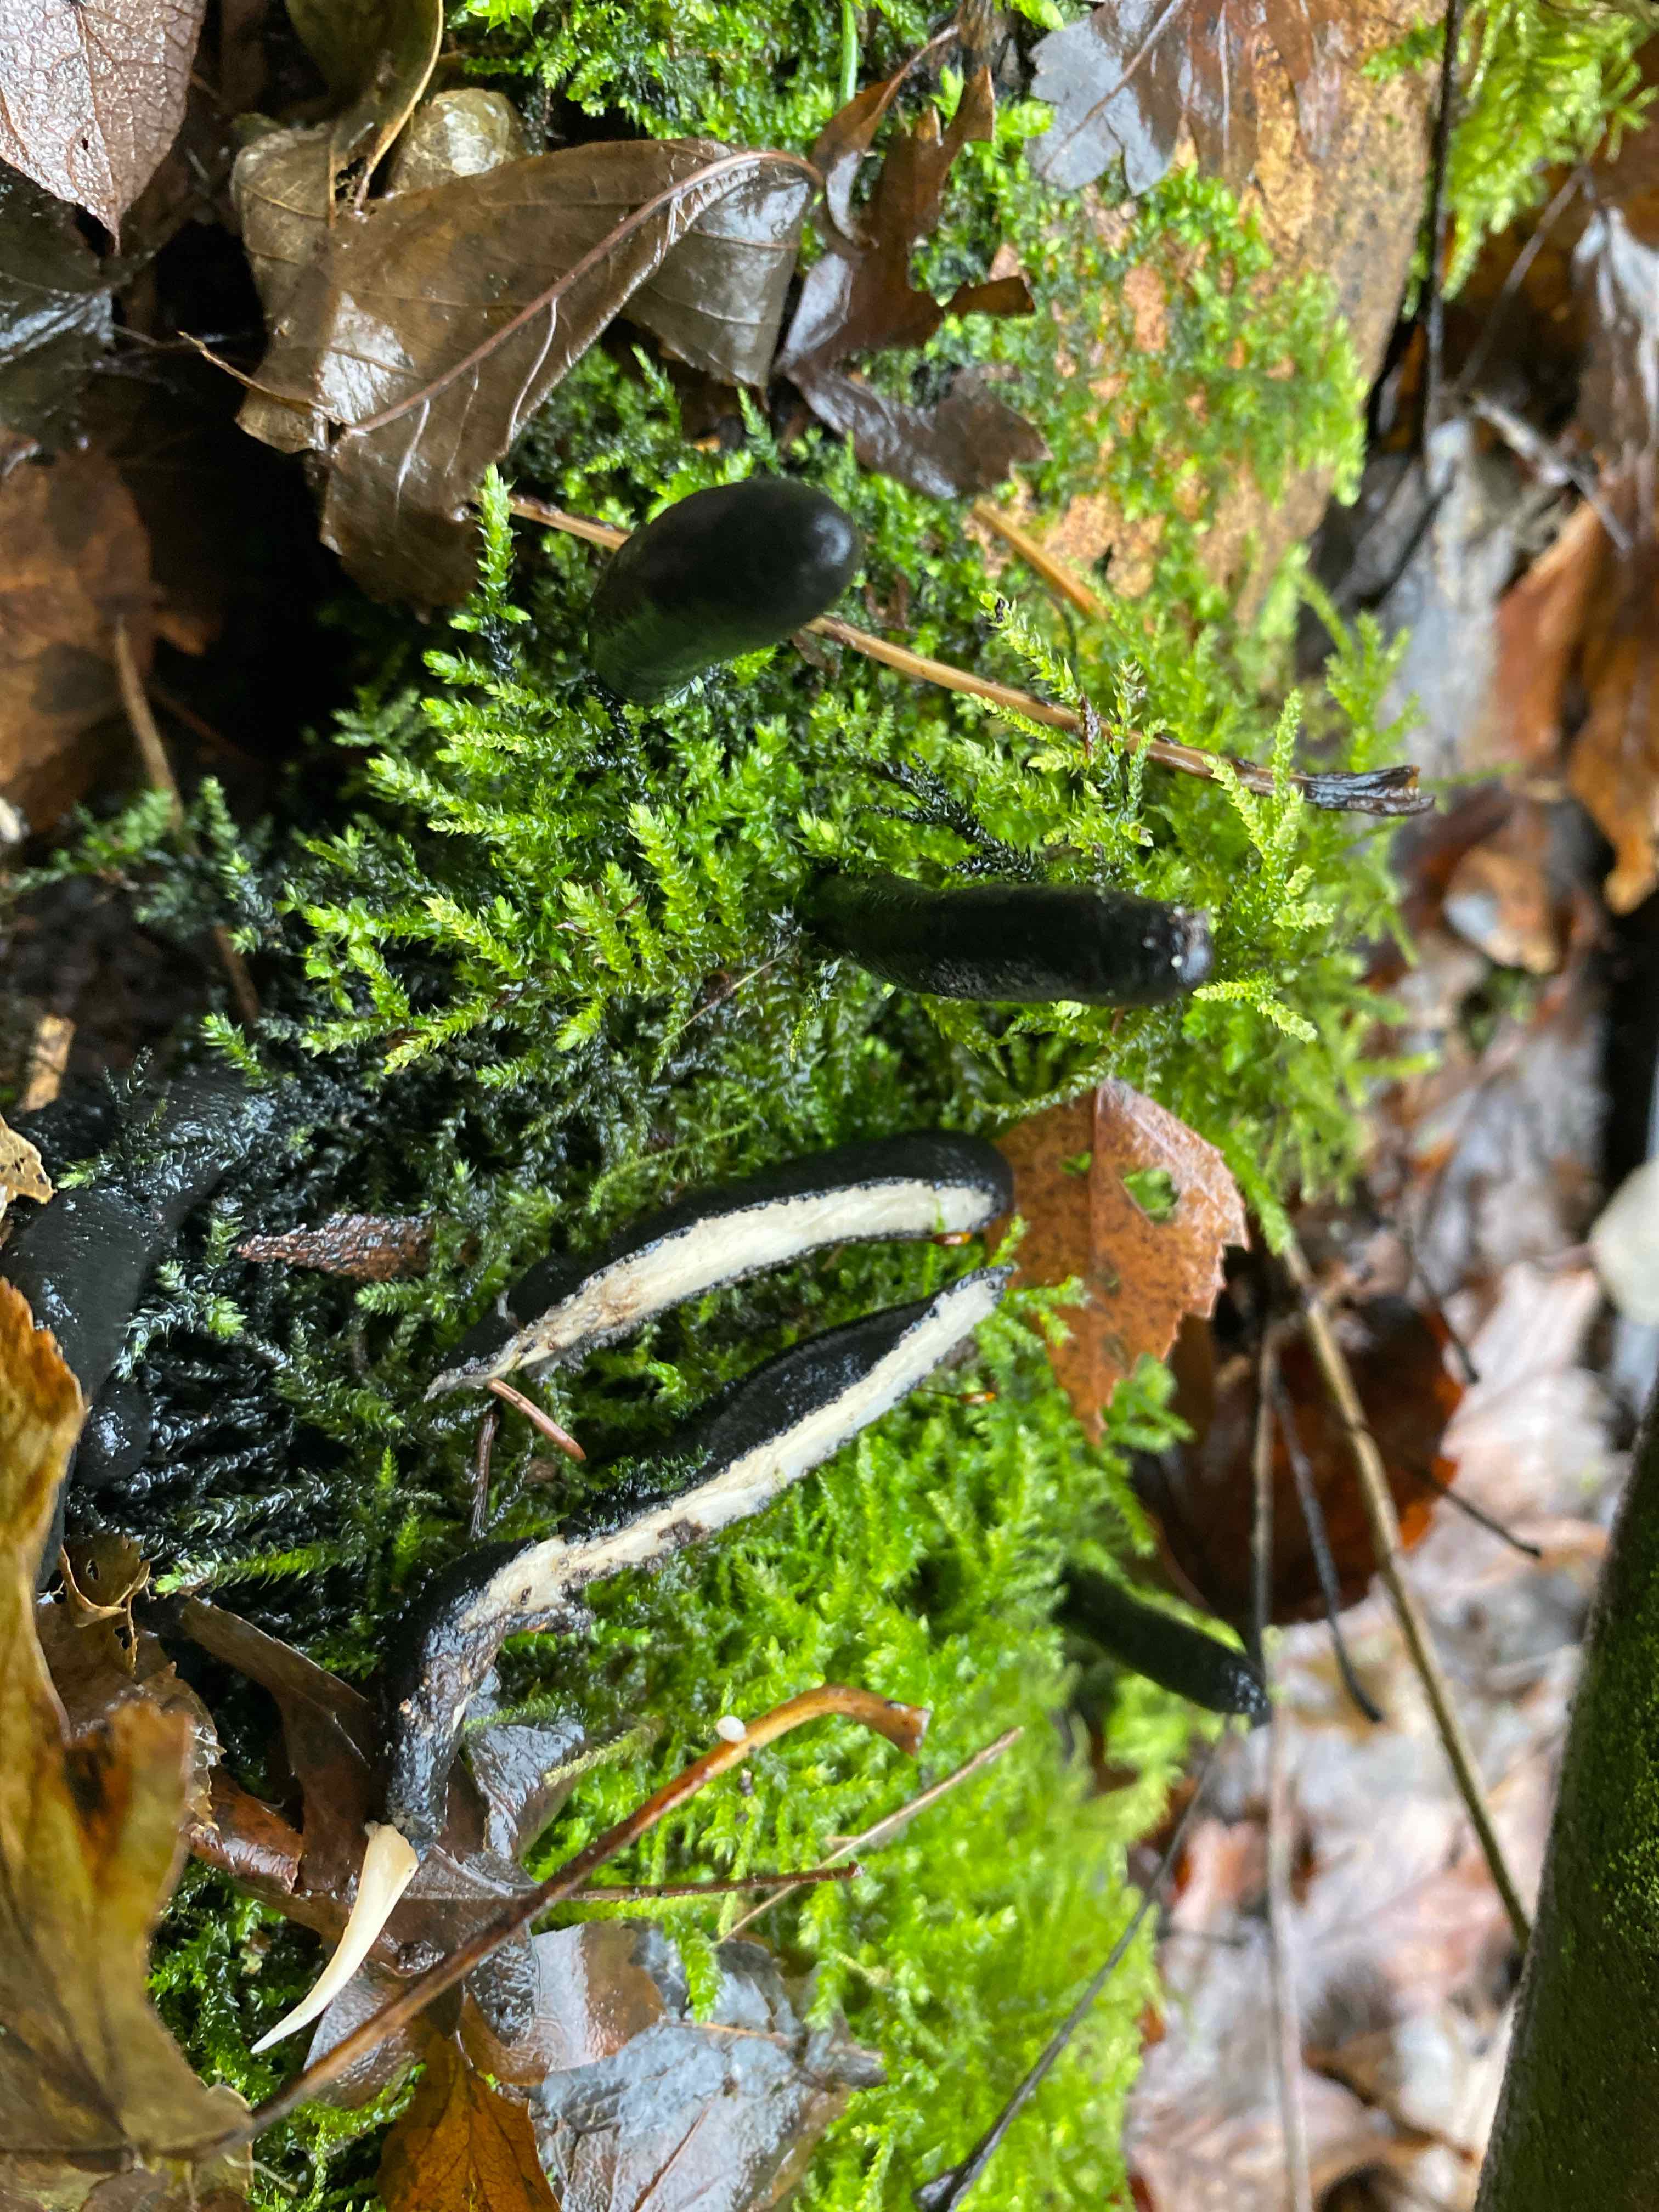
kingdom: Fungi
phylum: Ascomycota
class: Sordariomycetes
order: Xylariales
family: Xylariaceae
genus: Xylaria
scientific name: Xylaria longipes
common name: slank stødsvamp
